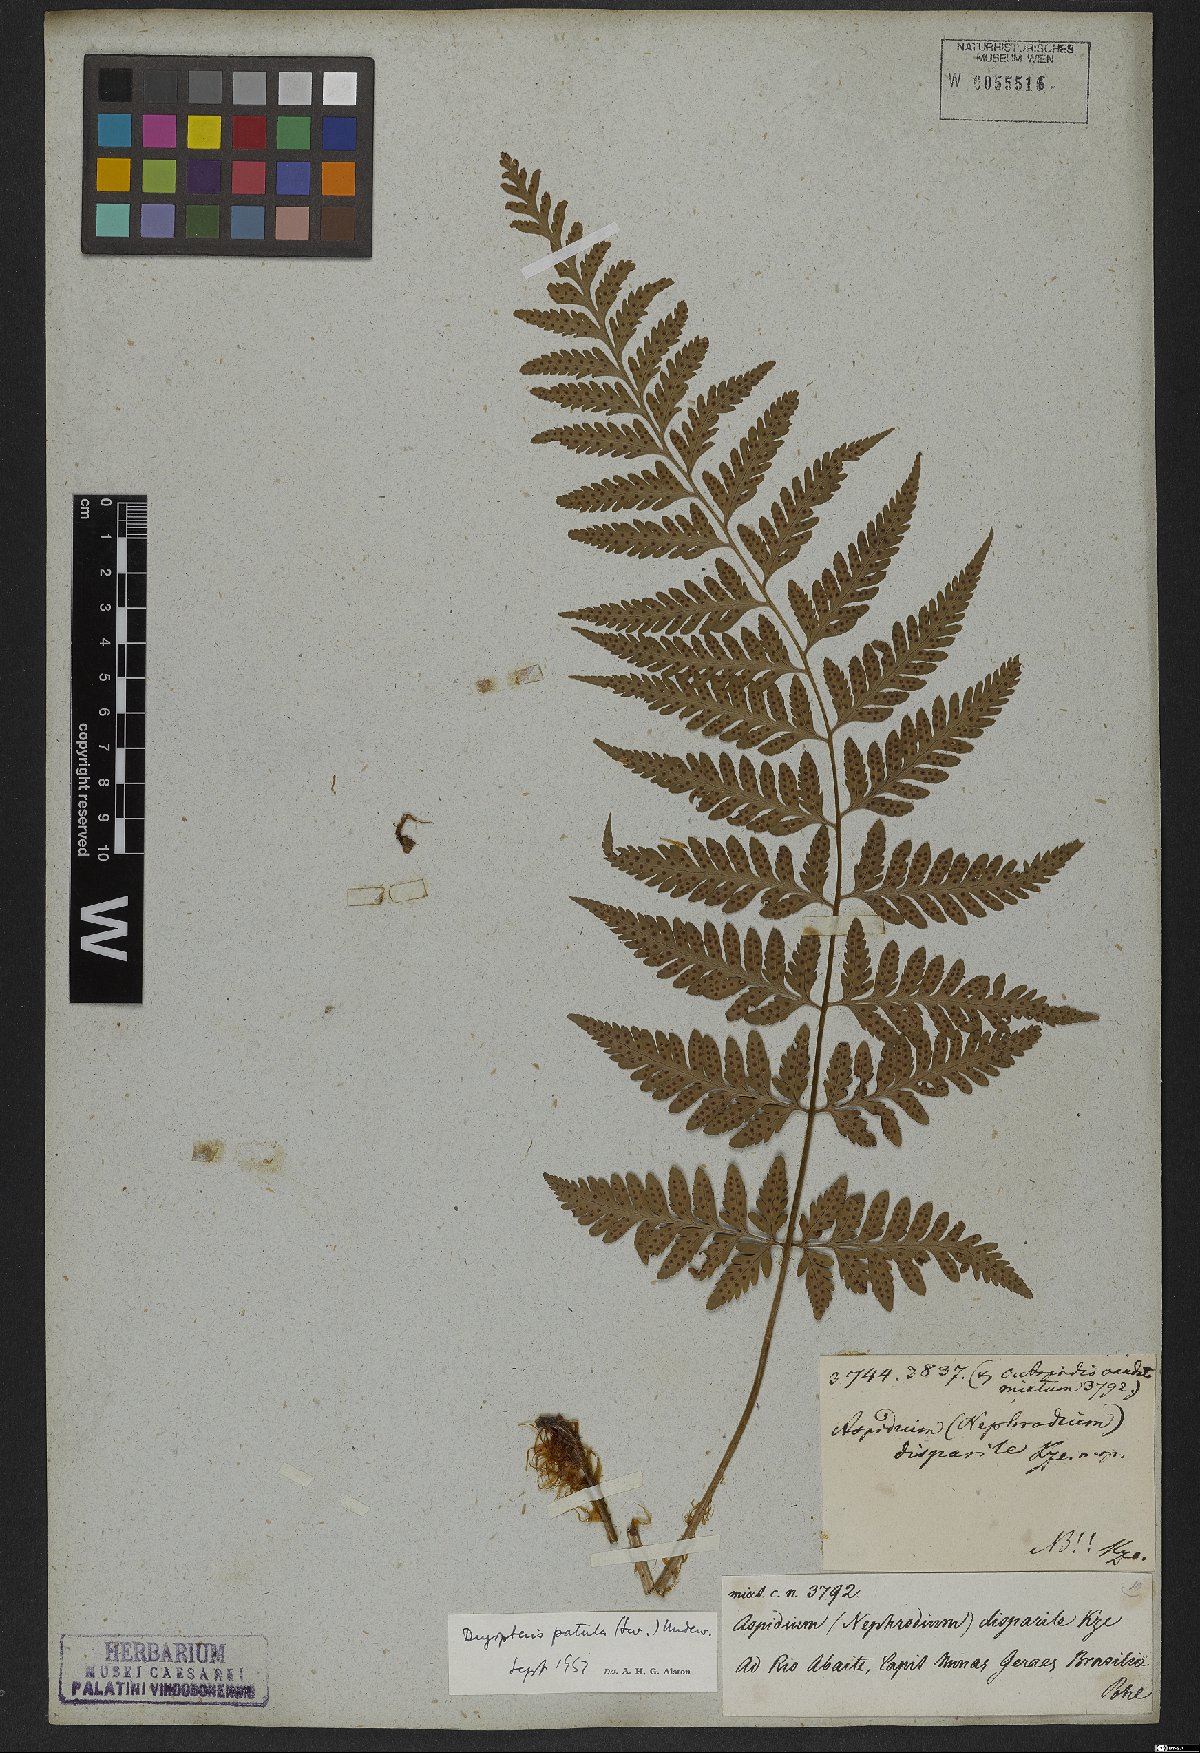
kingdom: Plantae
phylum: Tracheophyta
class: Polypodiopsida
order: Polypodiales
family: Dryopteridaceae
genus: Dryopteris
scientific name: Dryopteris patula
